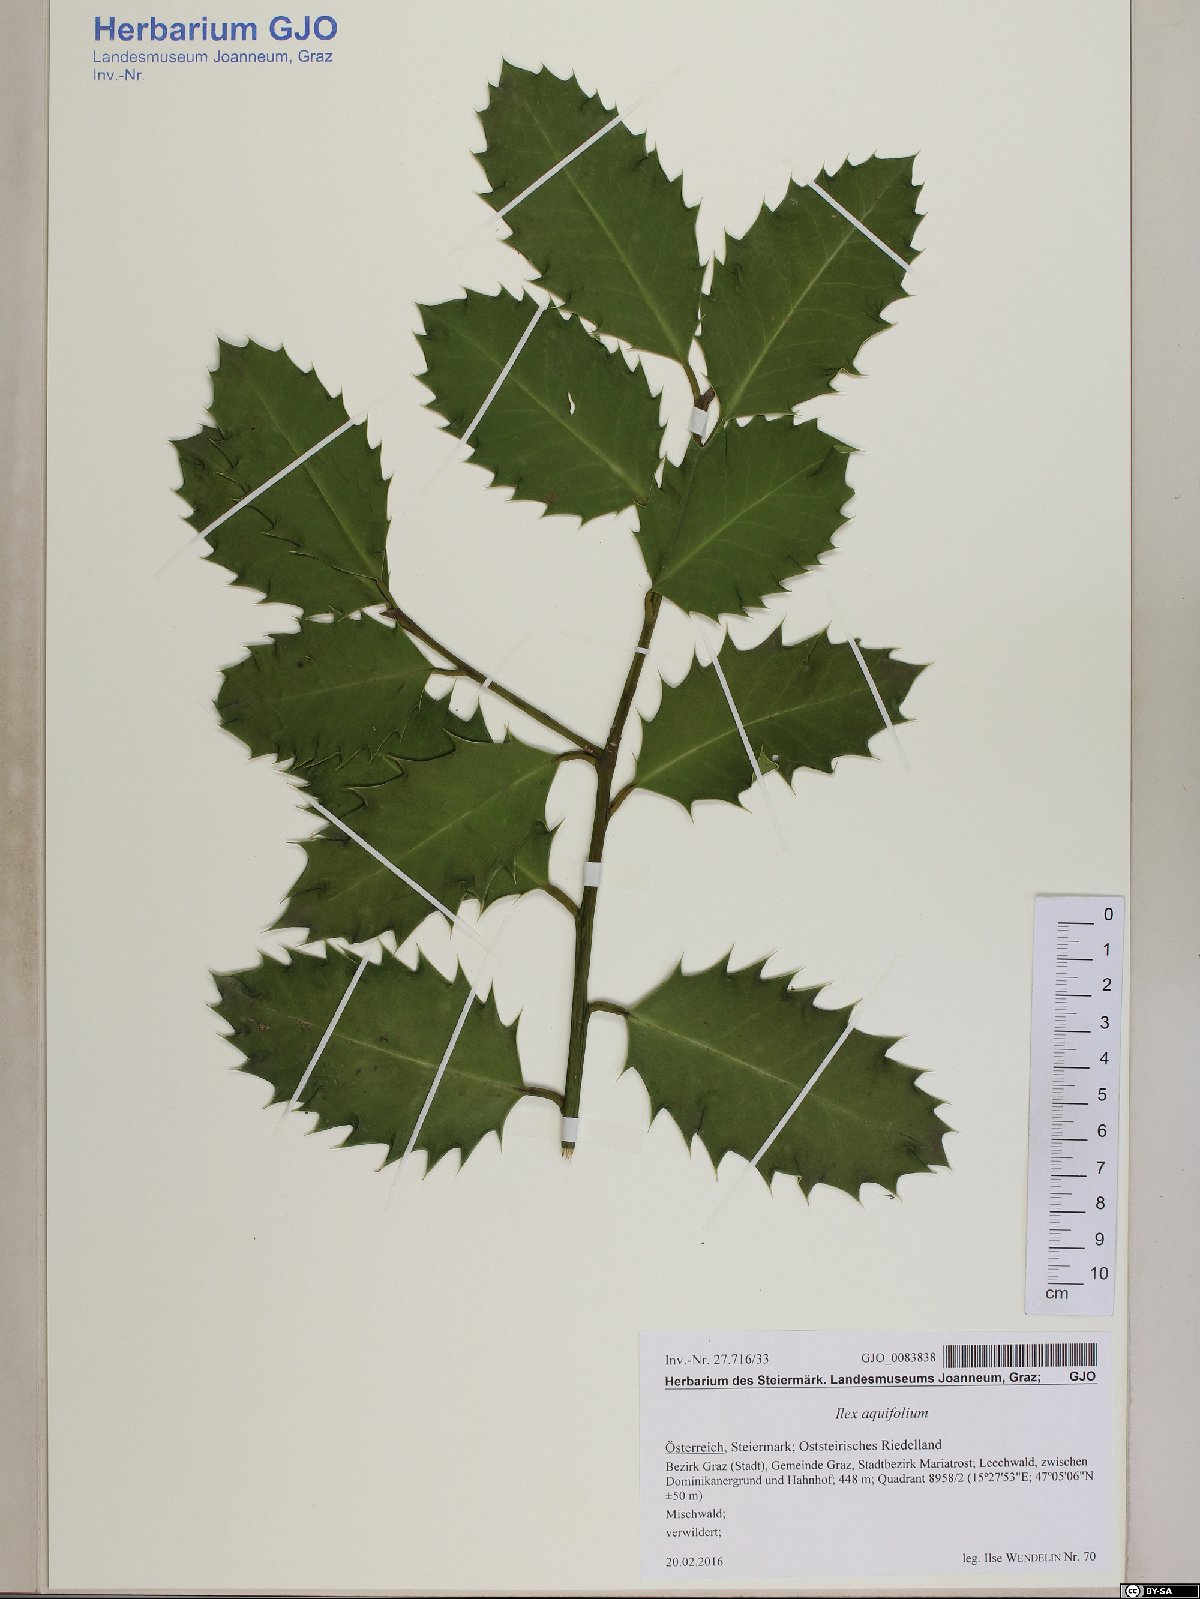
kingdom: Plantae
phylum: Tracheophyta
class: Magnoliopsida
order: Aquifoliales
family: Aquifoliaceae
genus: Ilex
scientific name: Ilex aquifolium
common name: English holly
